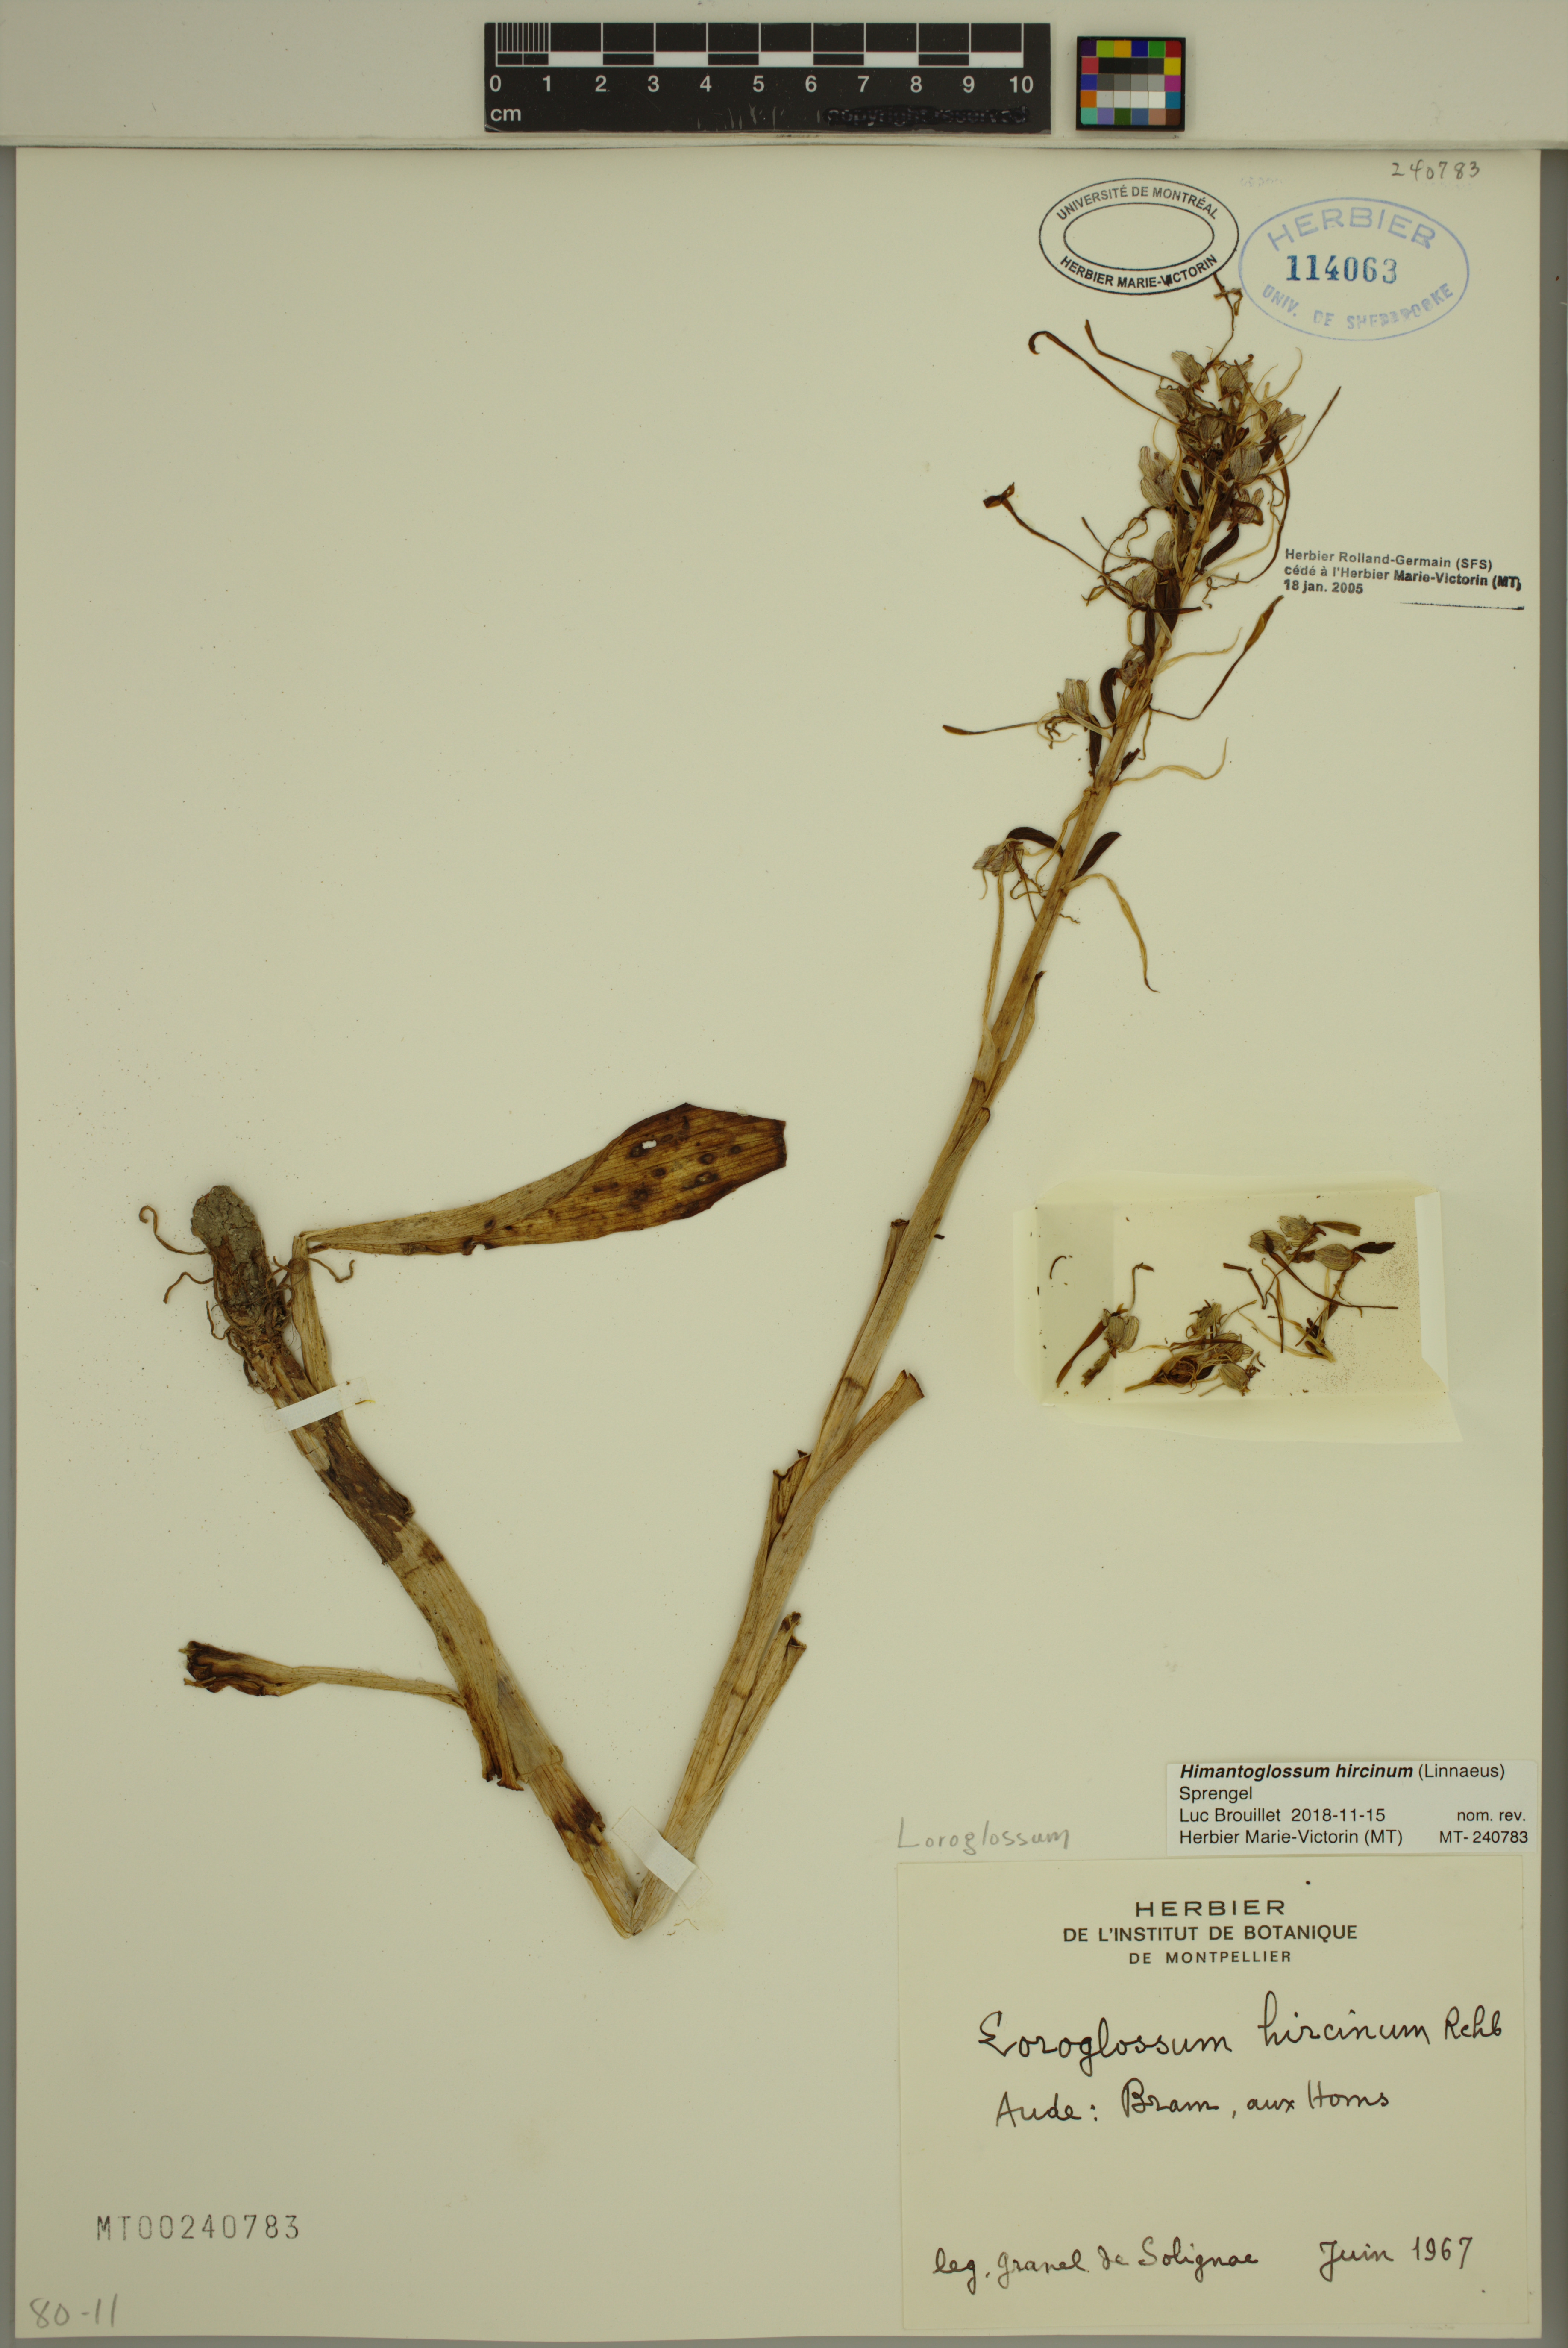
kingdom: Plantae
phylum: Tracheophyta
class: Liliopsida
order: Asparagales
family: Orchidaceae
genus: Himantoglossum
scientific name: Himantoglossum hircinum
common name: Lizard orchid
